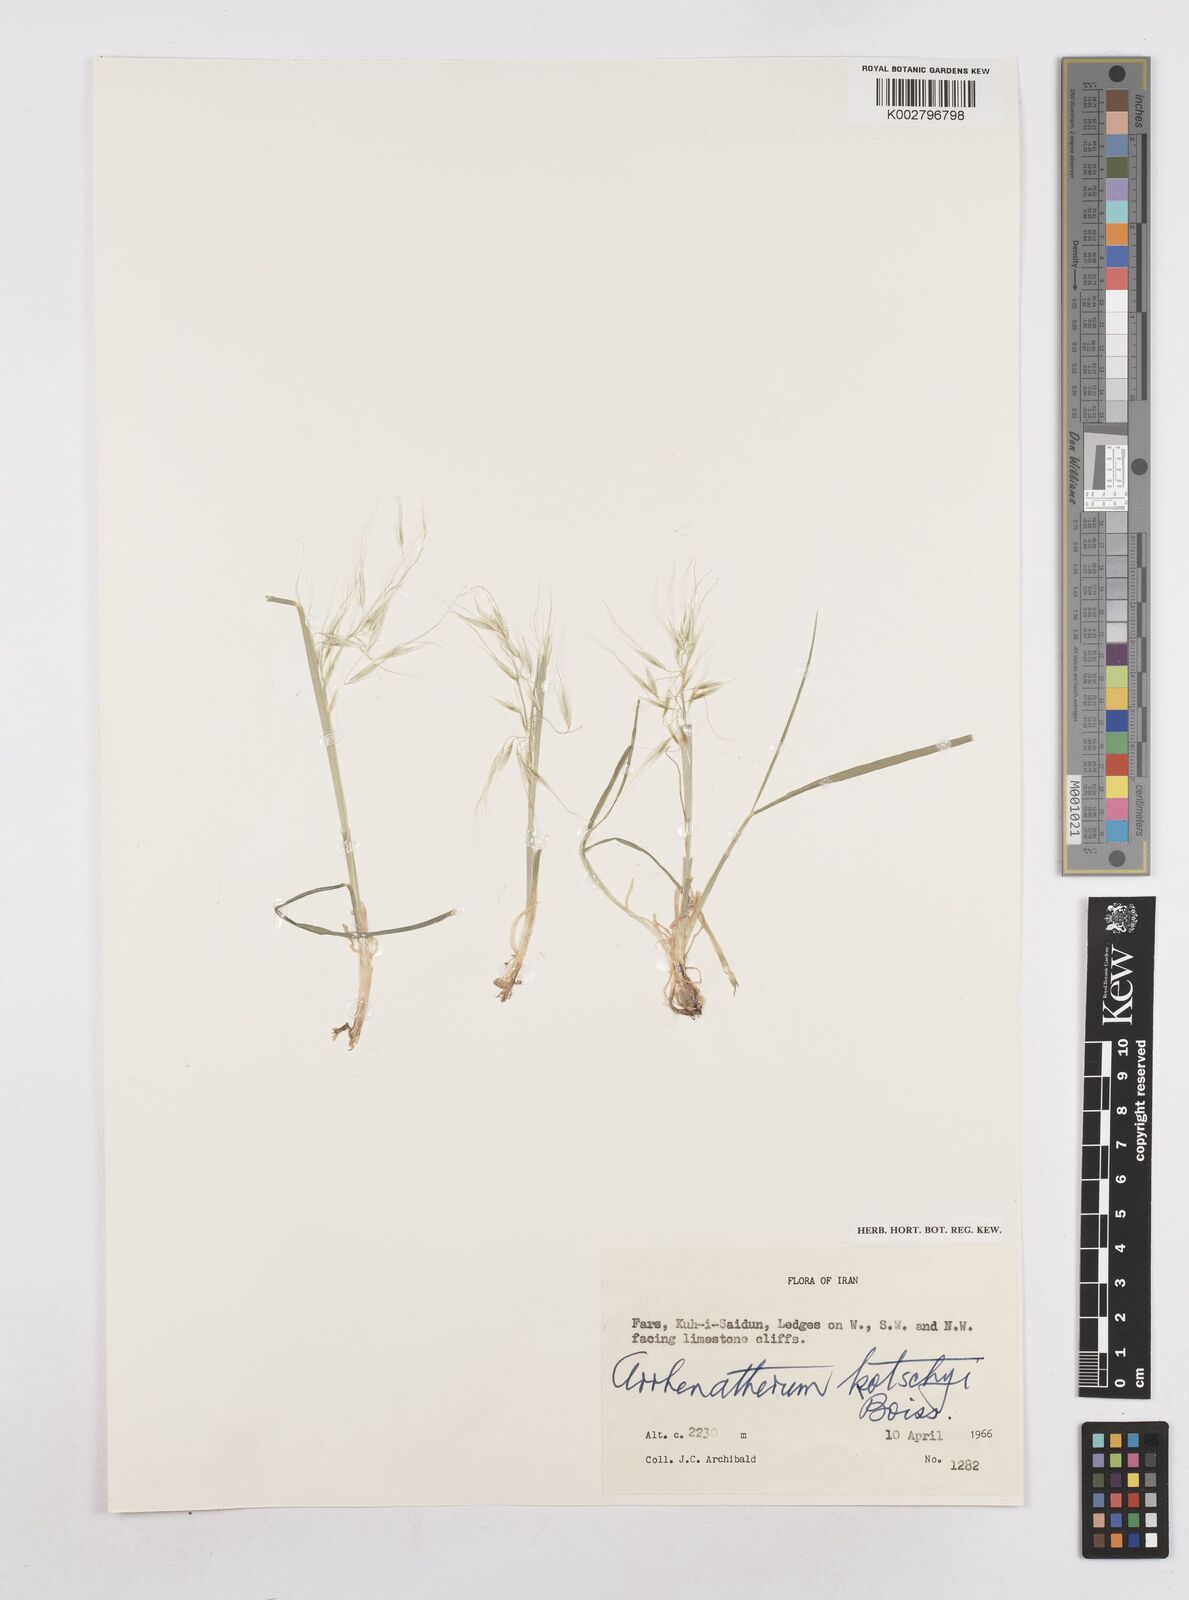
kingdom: Plantae
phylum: Tracheophyta
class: Liliopsida
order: Poales
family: Poaceae
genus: Arrhenatherum
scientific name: Arrhenatherum kotschyi
